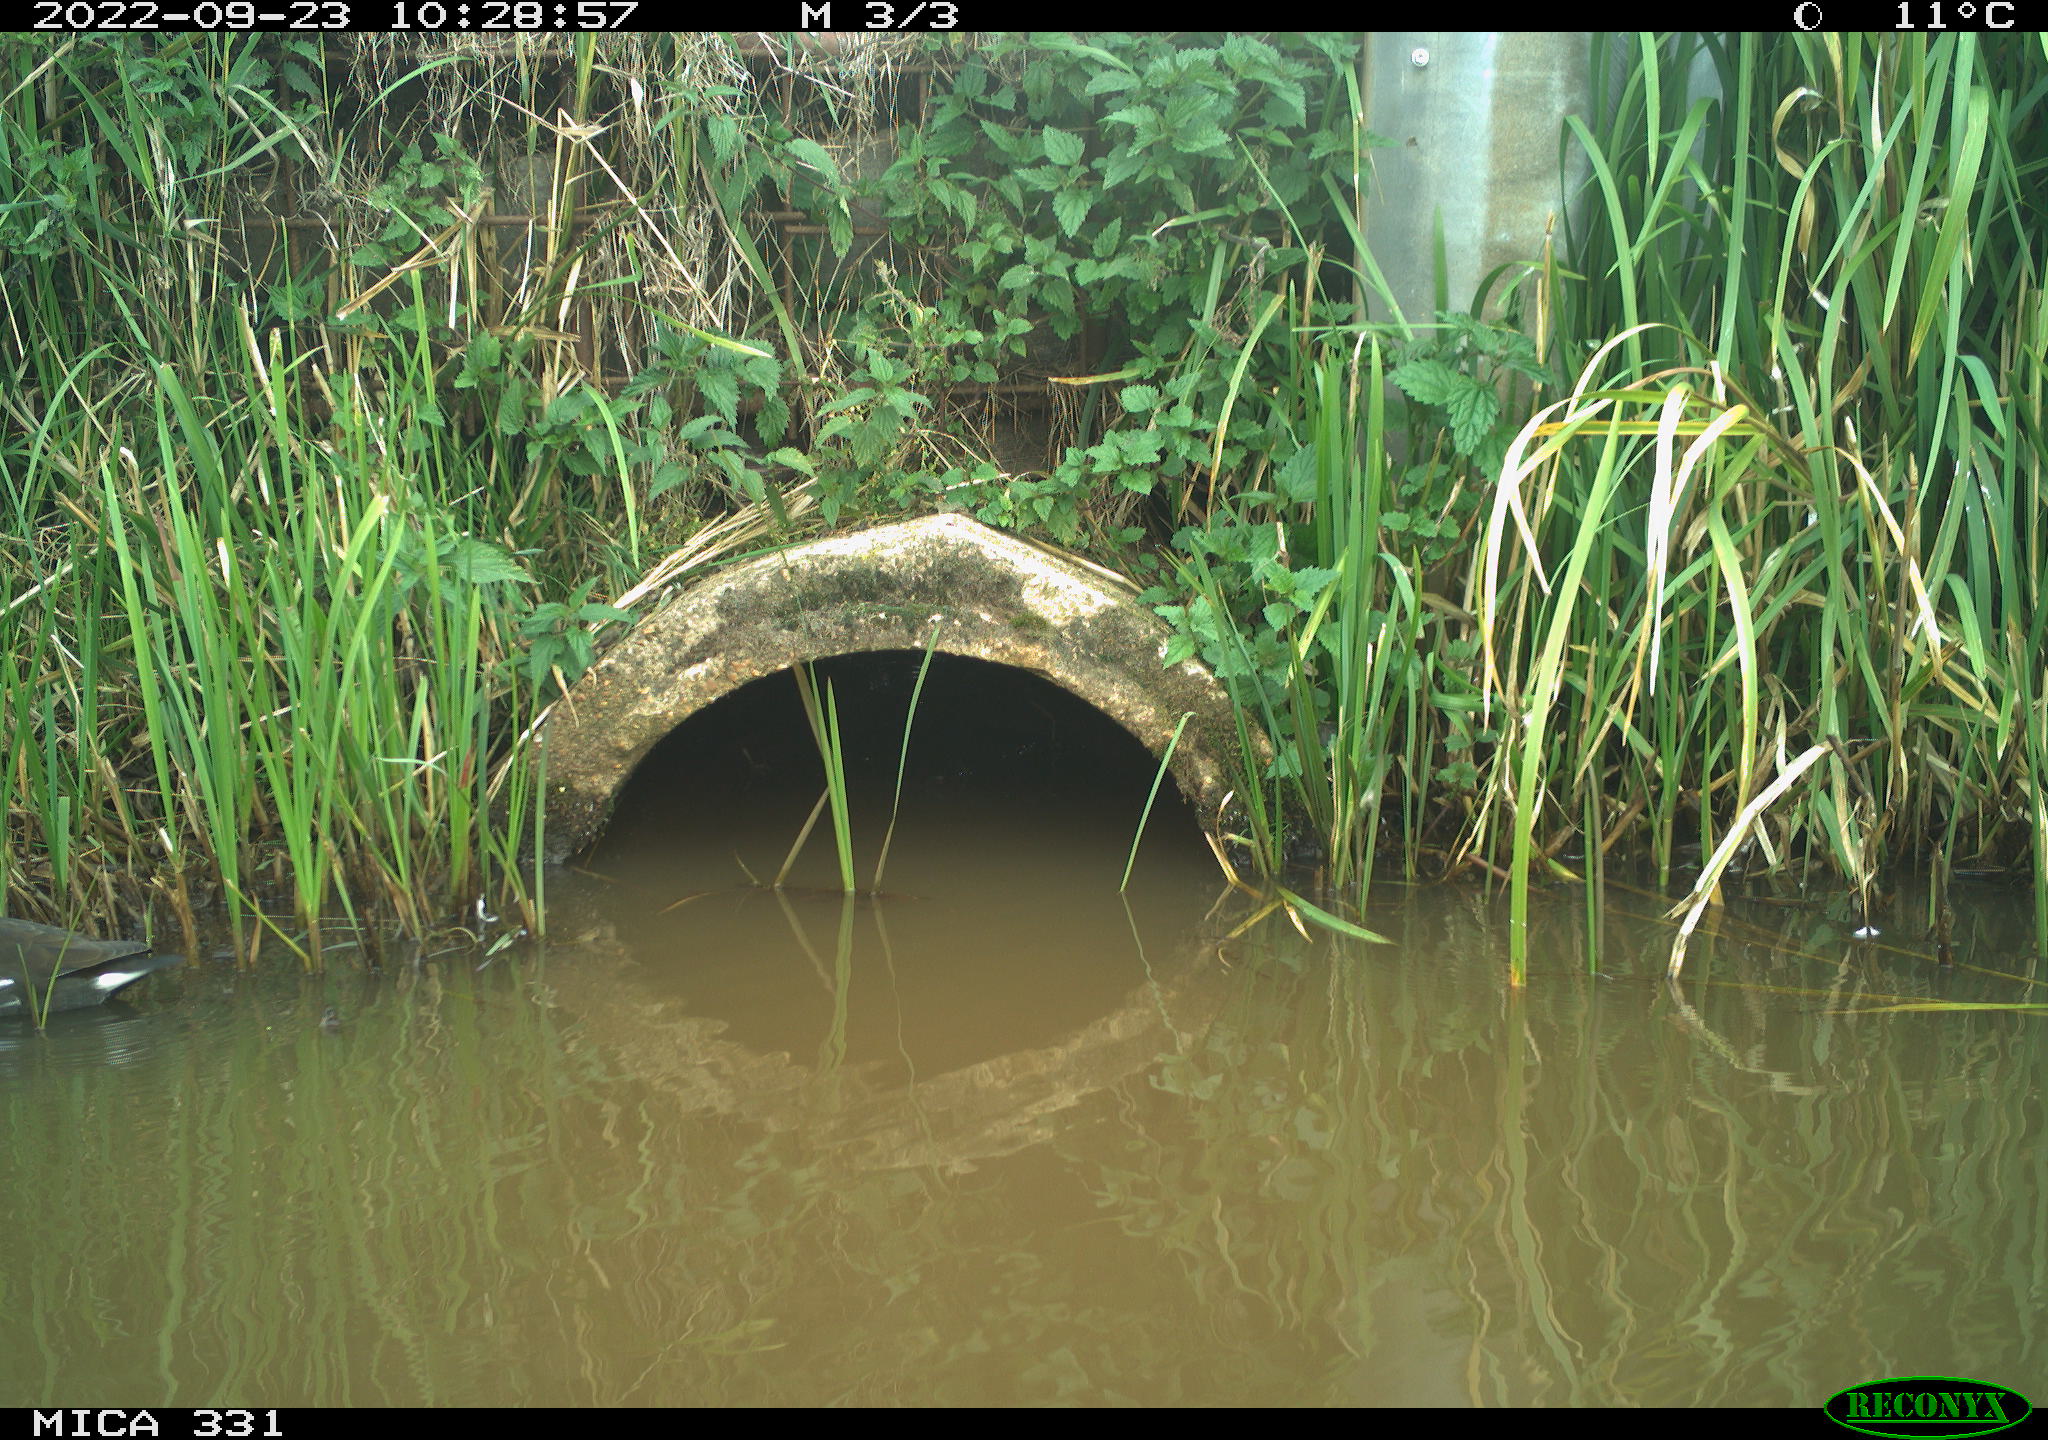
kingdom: Animalia
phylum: Chordata
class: Aves
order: Gruiformes
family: Rallidae
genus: Gallinula
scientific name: Gallinula chloropus
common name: Common moorhen
